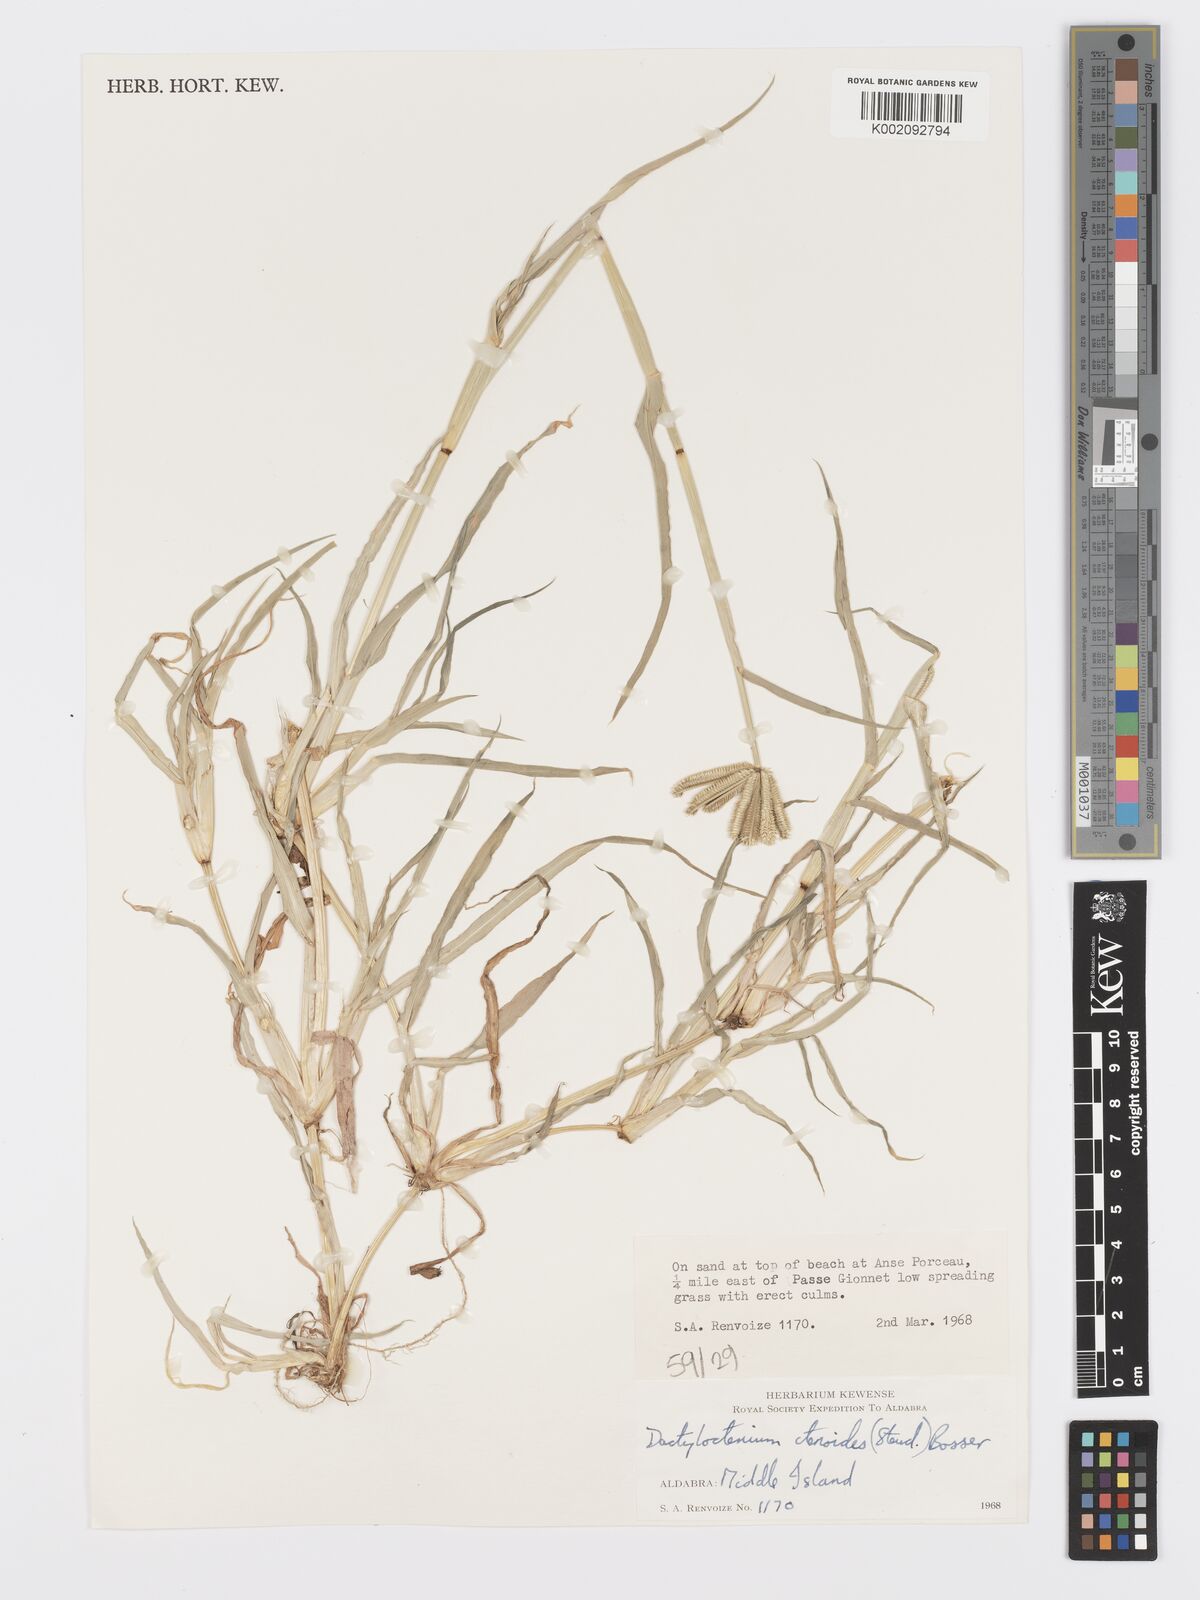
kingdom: Plantae
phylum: Tracheophyta
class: Liliopsida
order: Poales
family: Poaceae
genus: Dactyloctenium
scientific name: Dactyloctenium ctenoides
